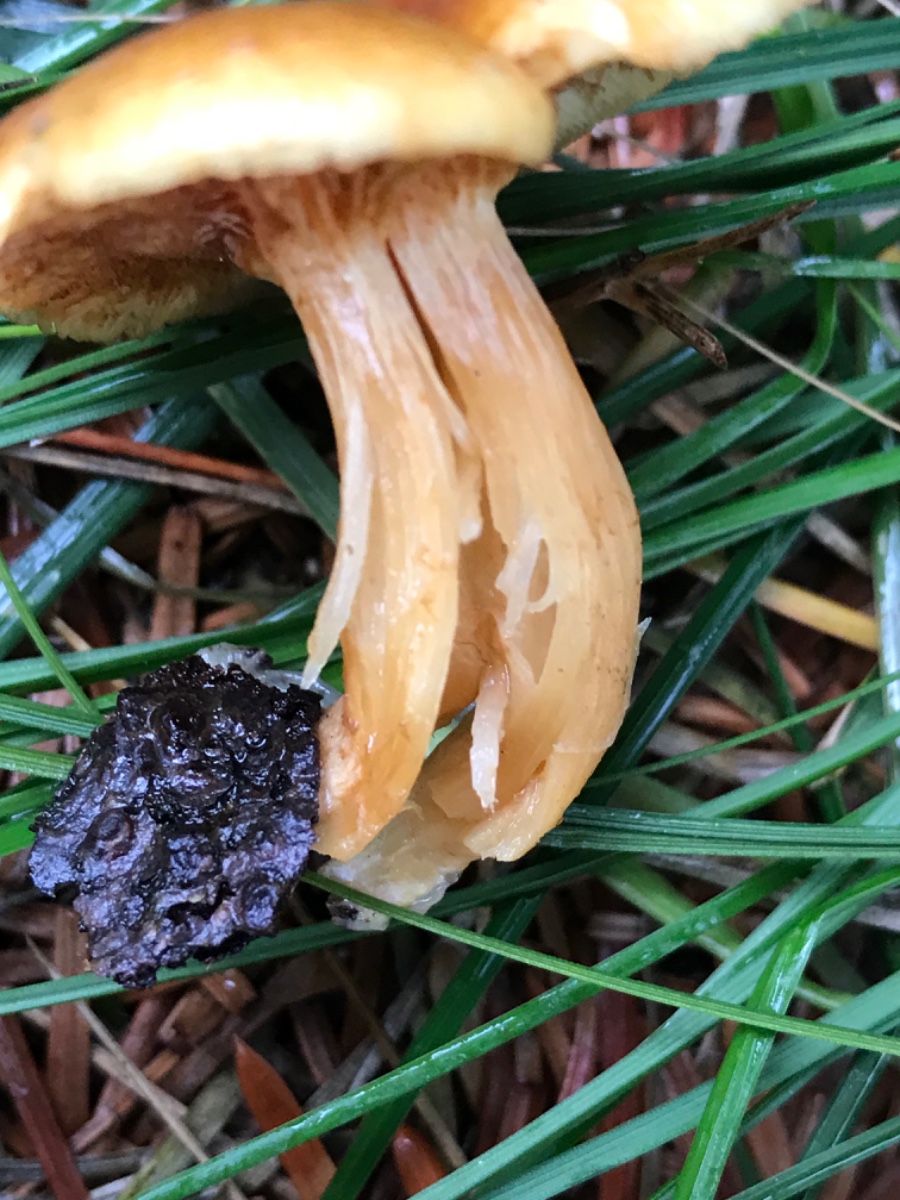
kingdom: Fungi
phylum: Basidiomycota
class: Agaricomycetes
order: Agaricales
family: Hymenogastraceae
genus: Gymnopilus
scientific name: Gymnopilus penetrans
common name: plettet flammehat
